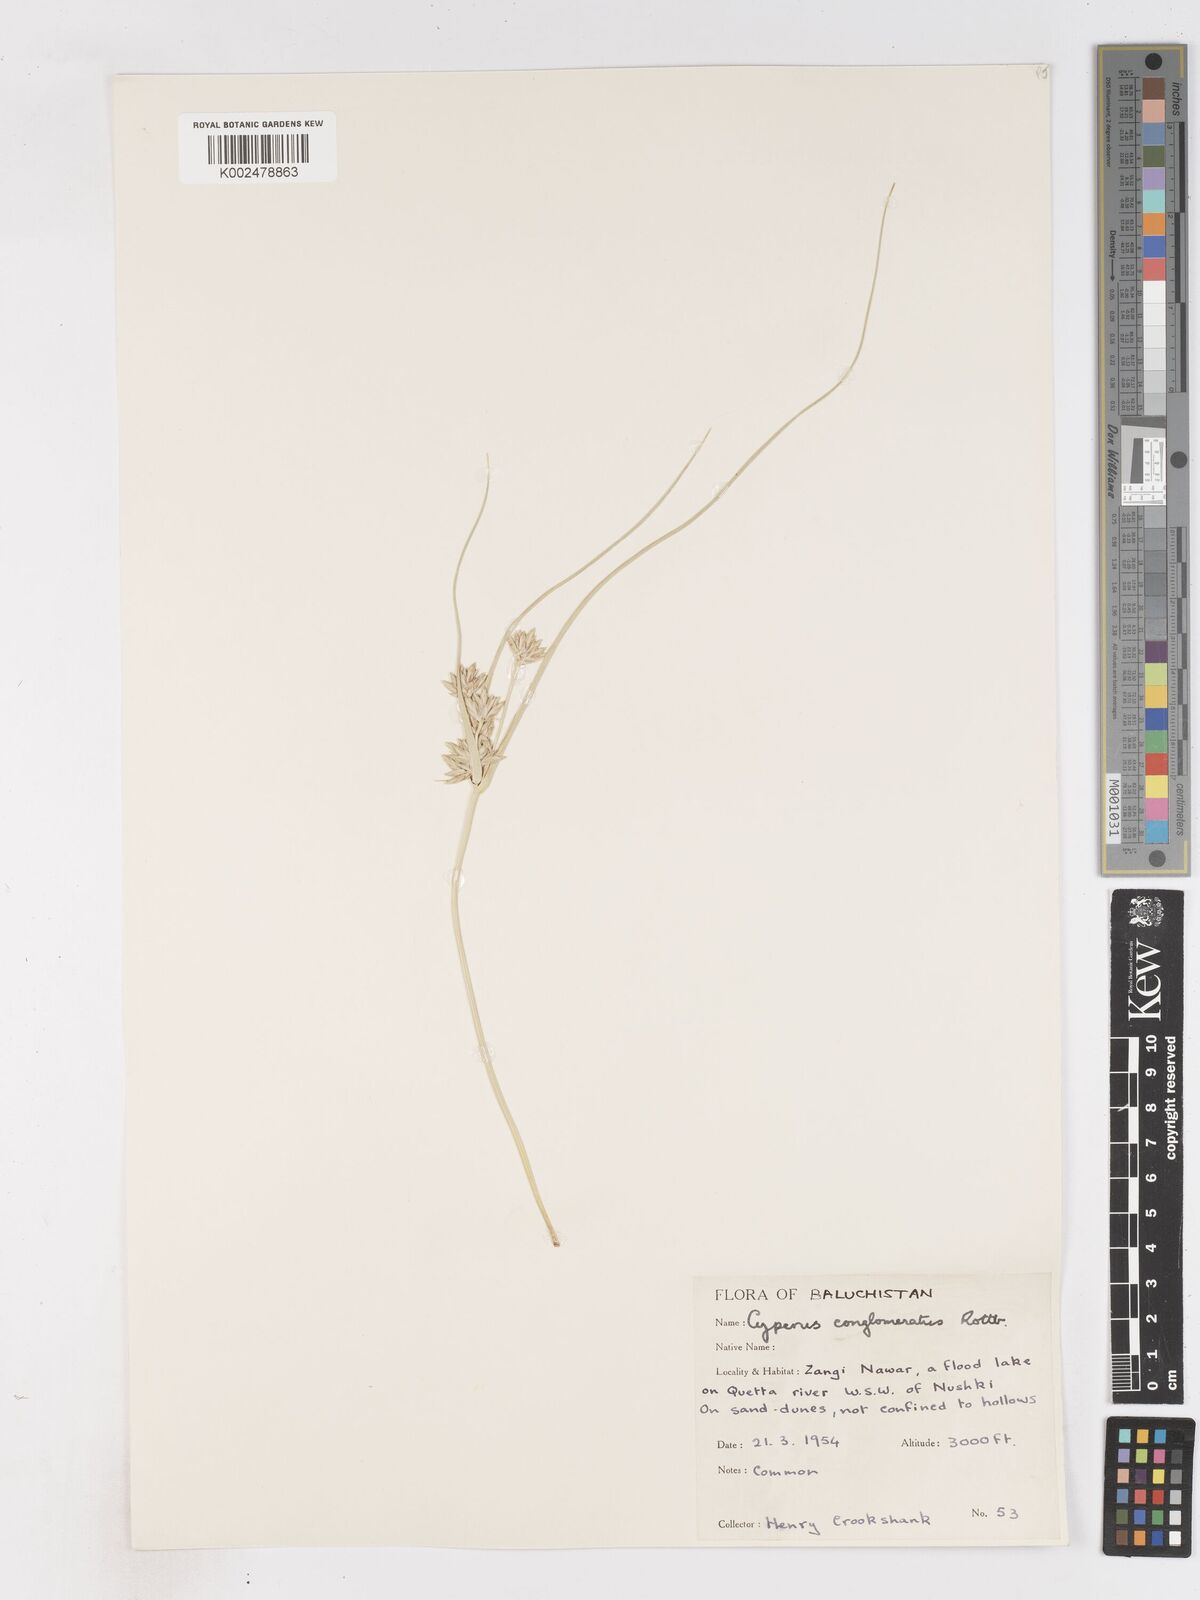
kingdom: Plantae
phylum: Tracheophyta
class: Liliopsida
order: Poales
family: Cyperaceae
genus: Cyperus
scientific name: Cyperus aucheri
